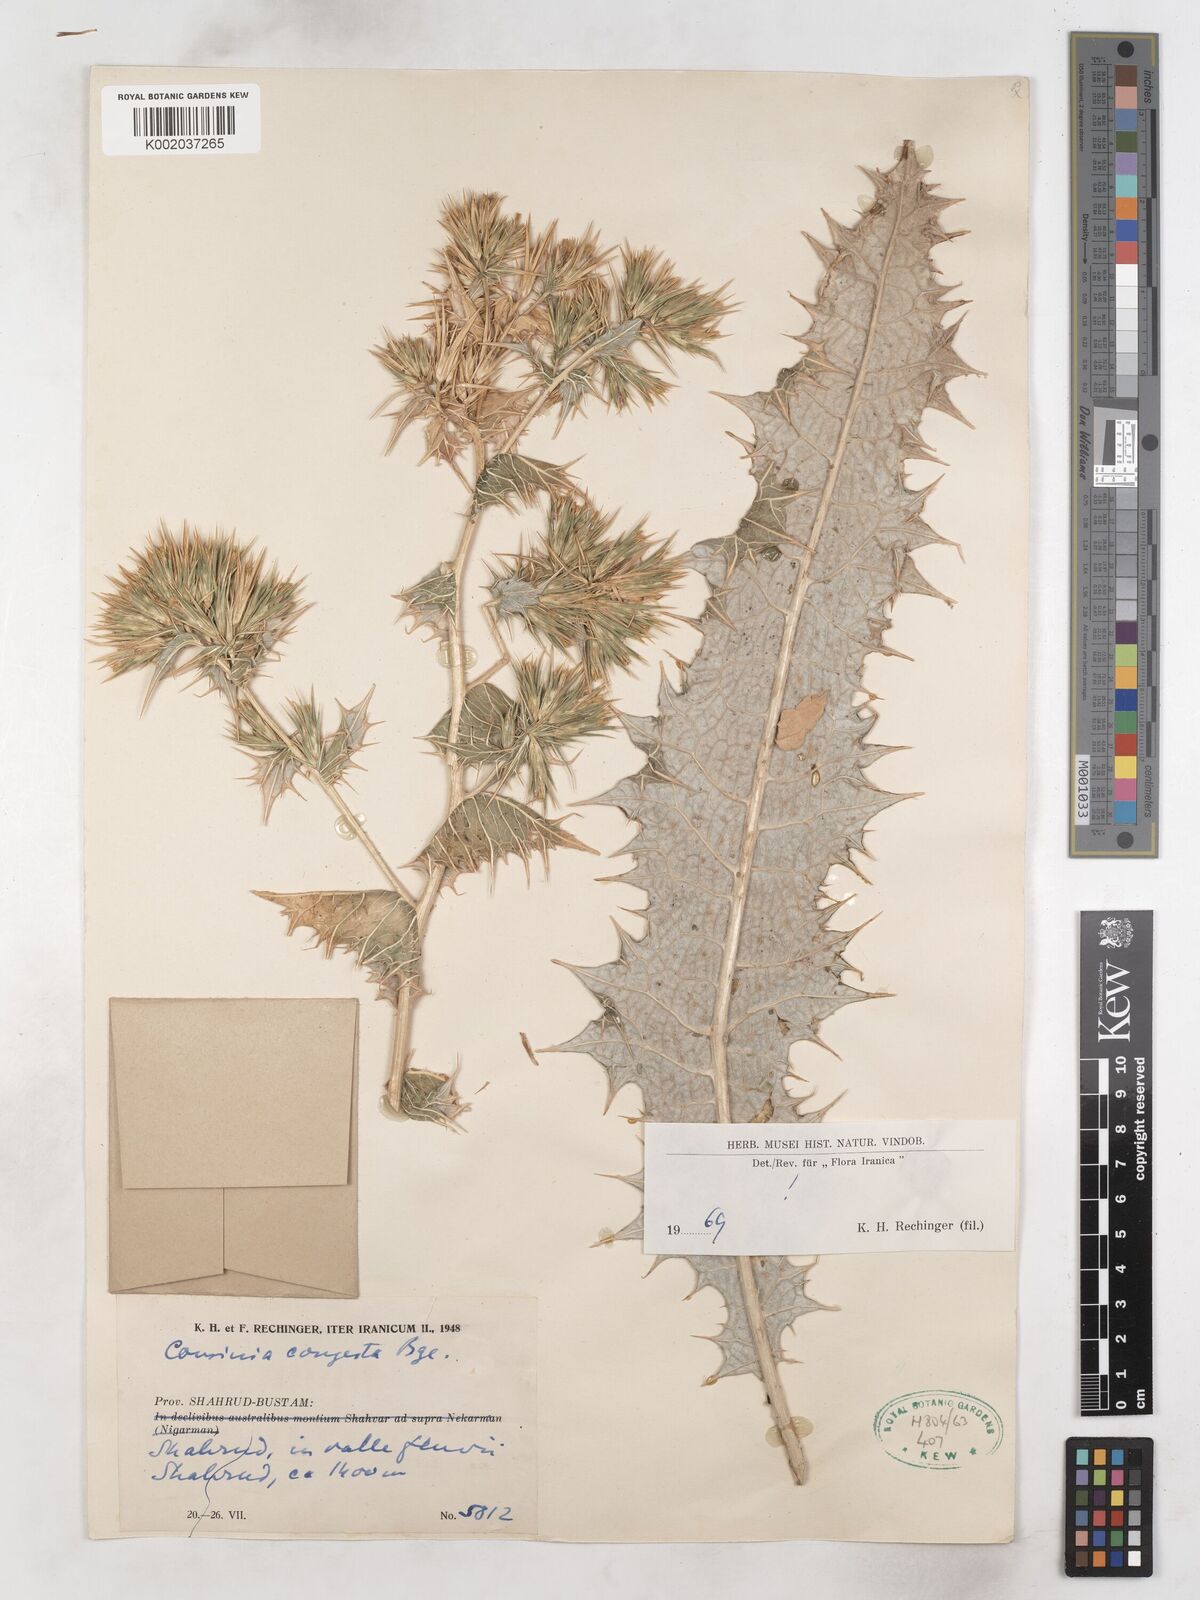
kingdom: Plantae
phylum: Tracheophyta
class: Magnoliopsida
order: Asterales
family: Asteraceae
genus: Cousinia
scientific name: Cousinia congesta
